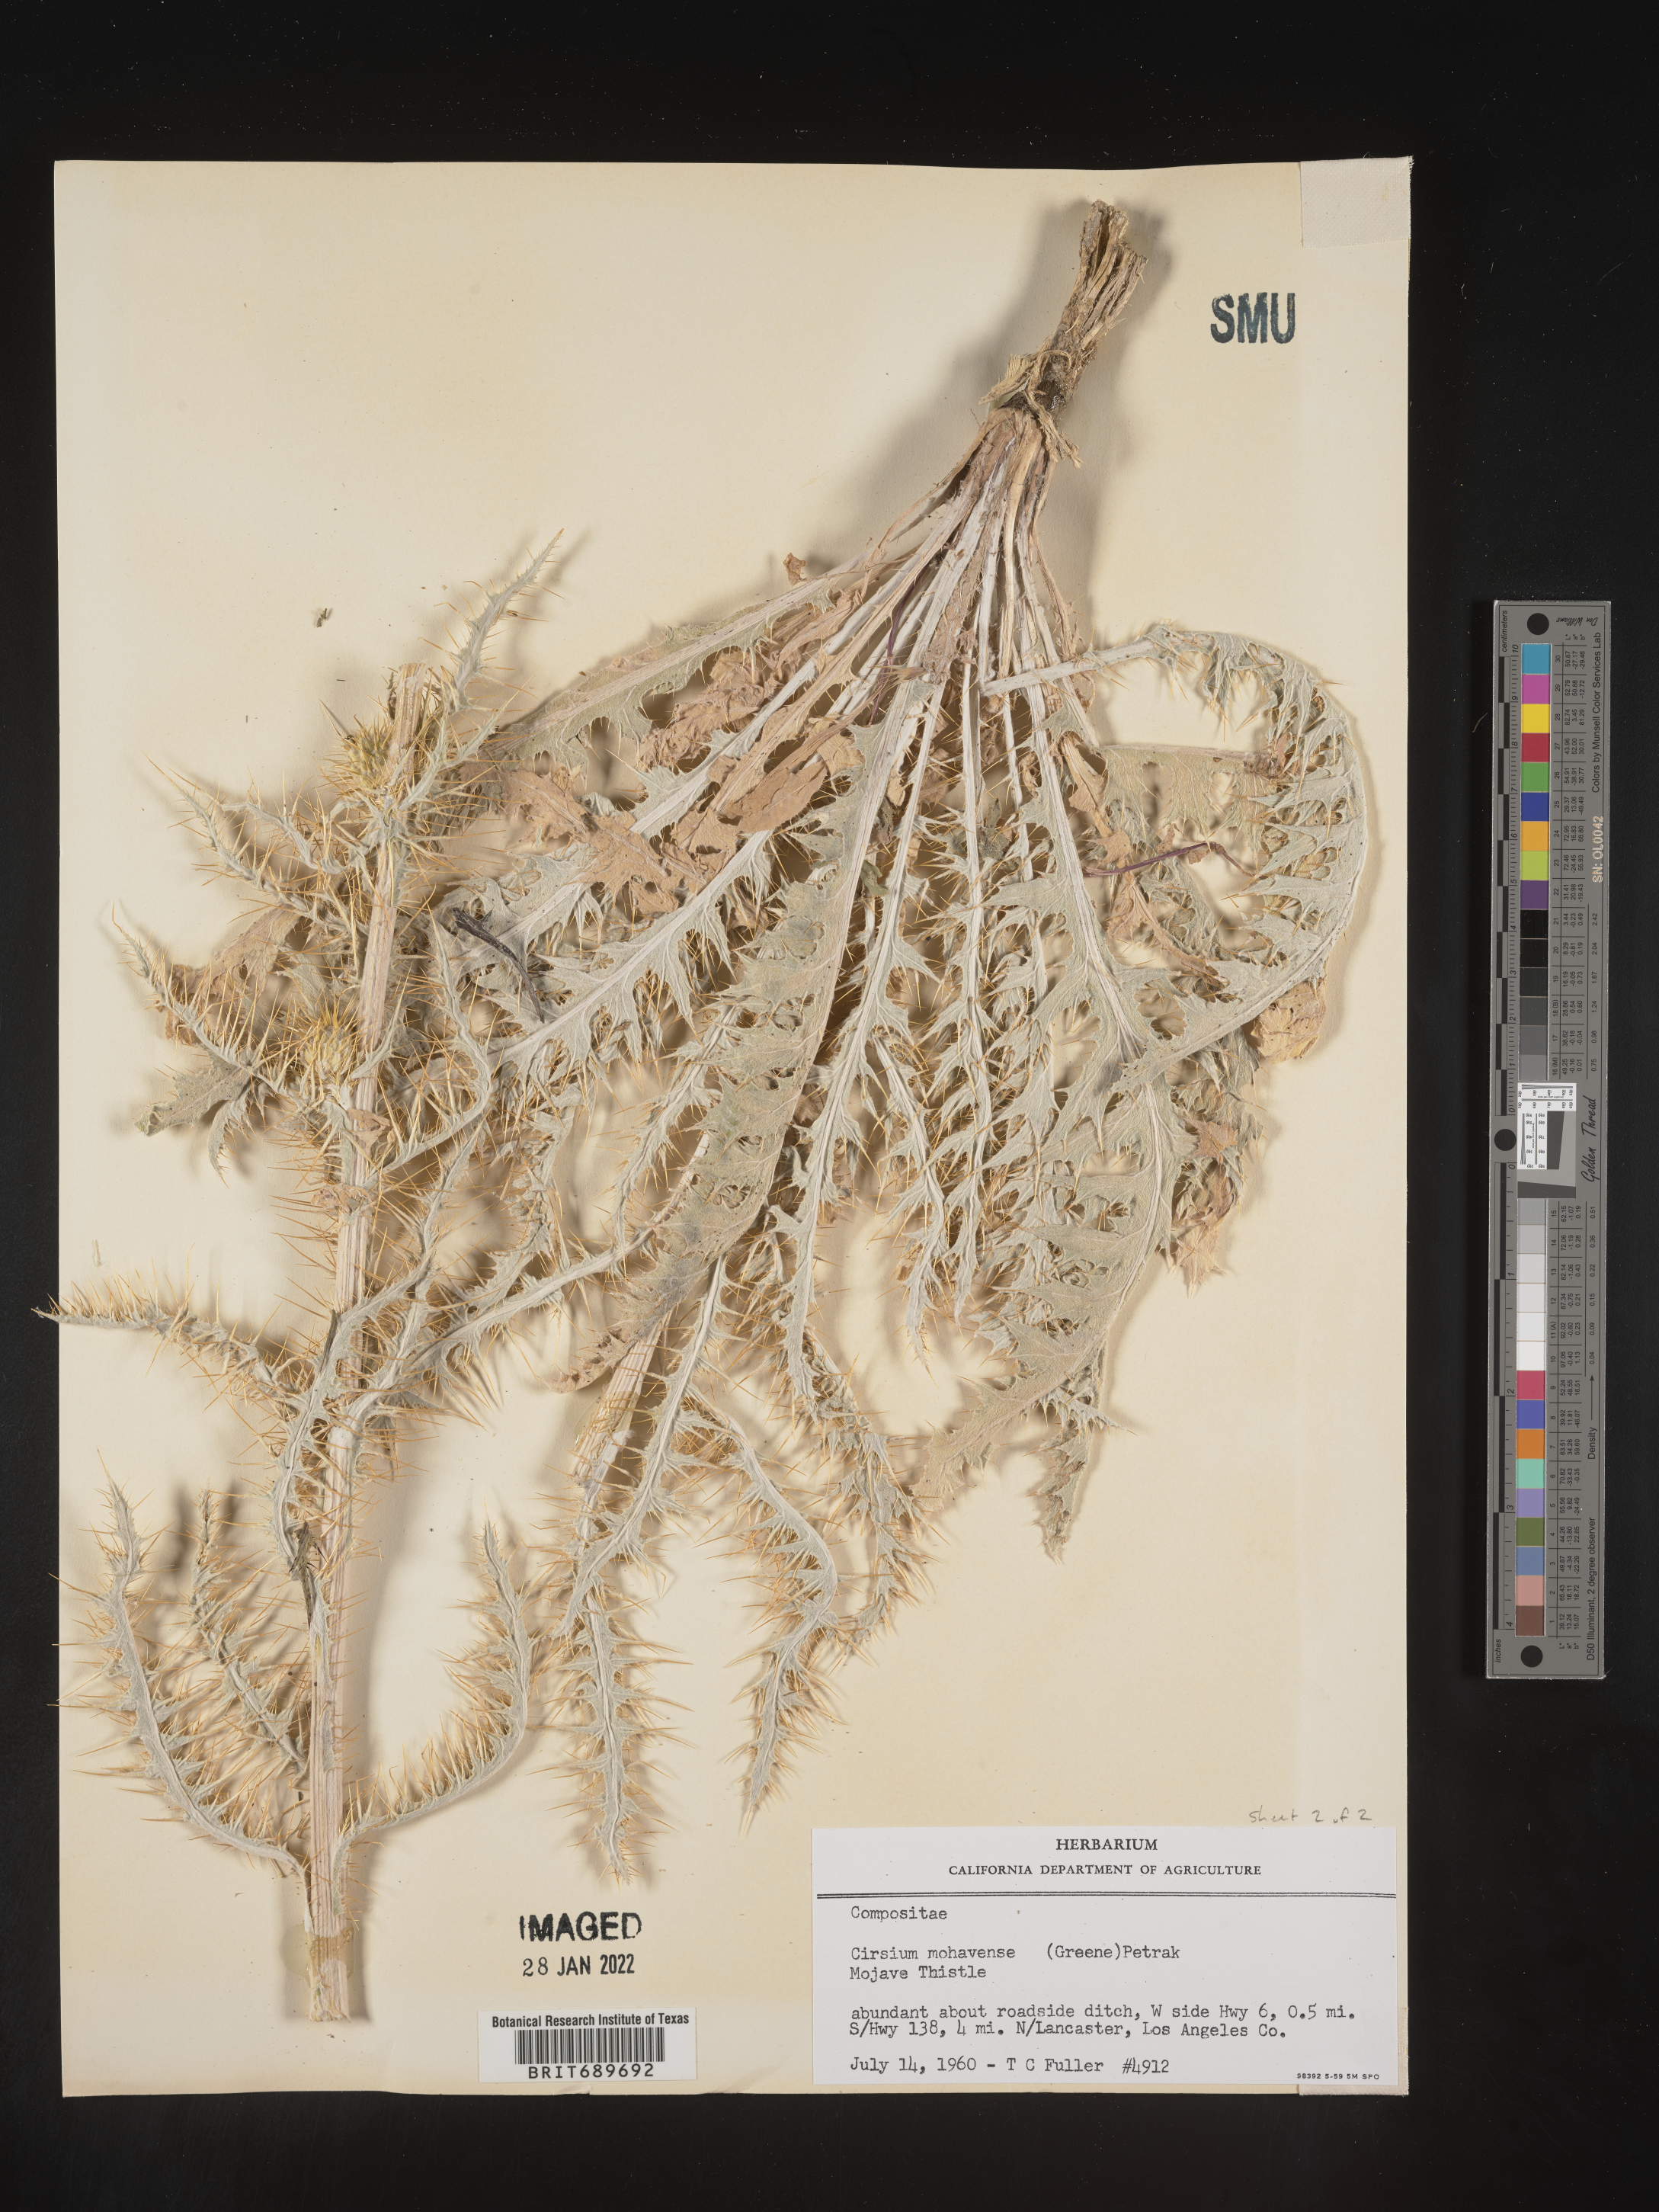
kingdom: Plantae
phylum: Tracheophyta
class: Magnoliopsida
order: Asterales
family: Asteraceae
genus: Cirsium
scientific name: Cirsium mohavense
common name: Mojave thistle
